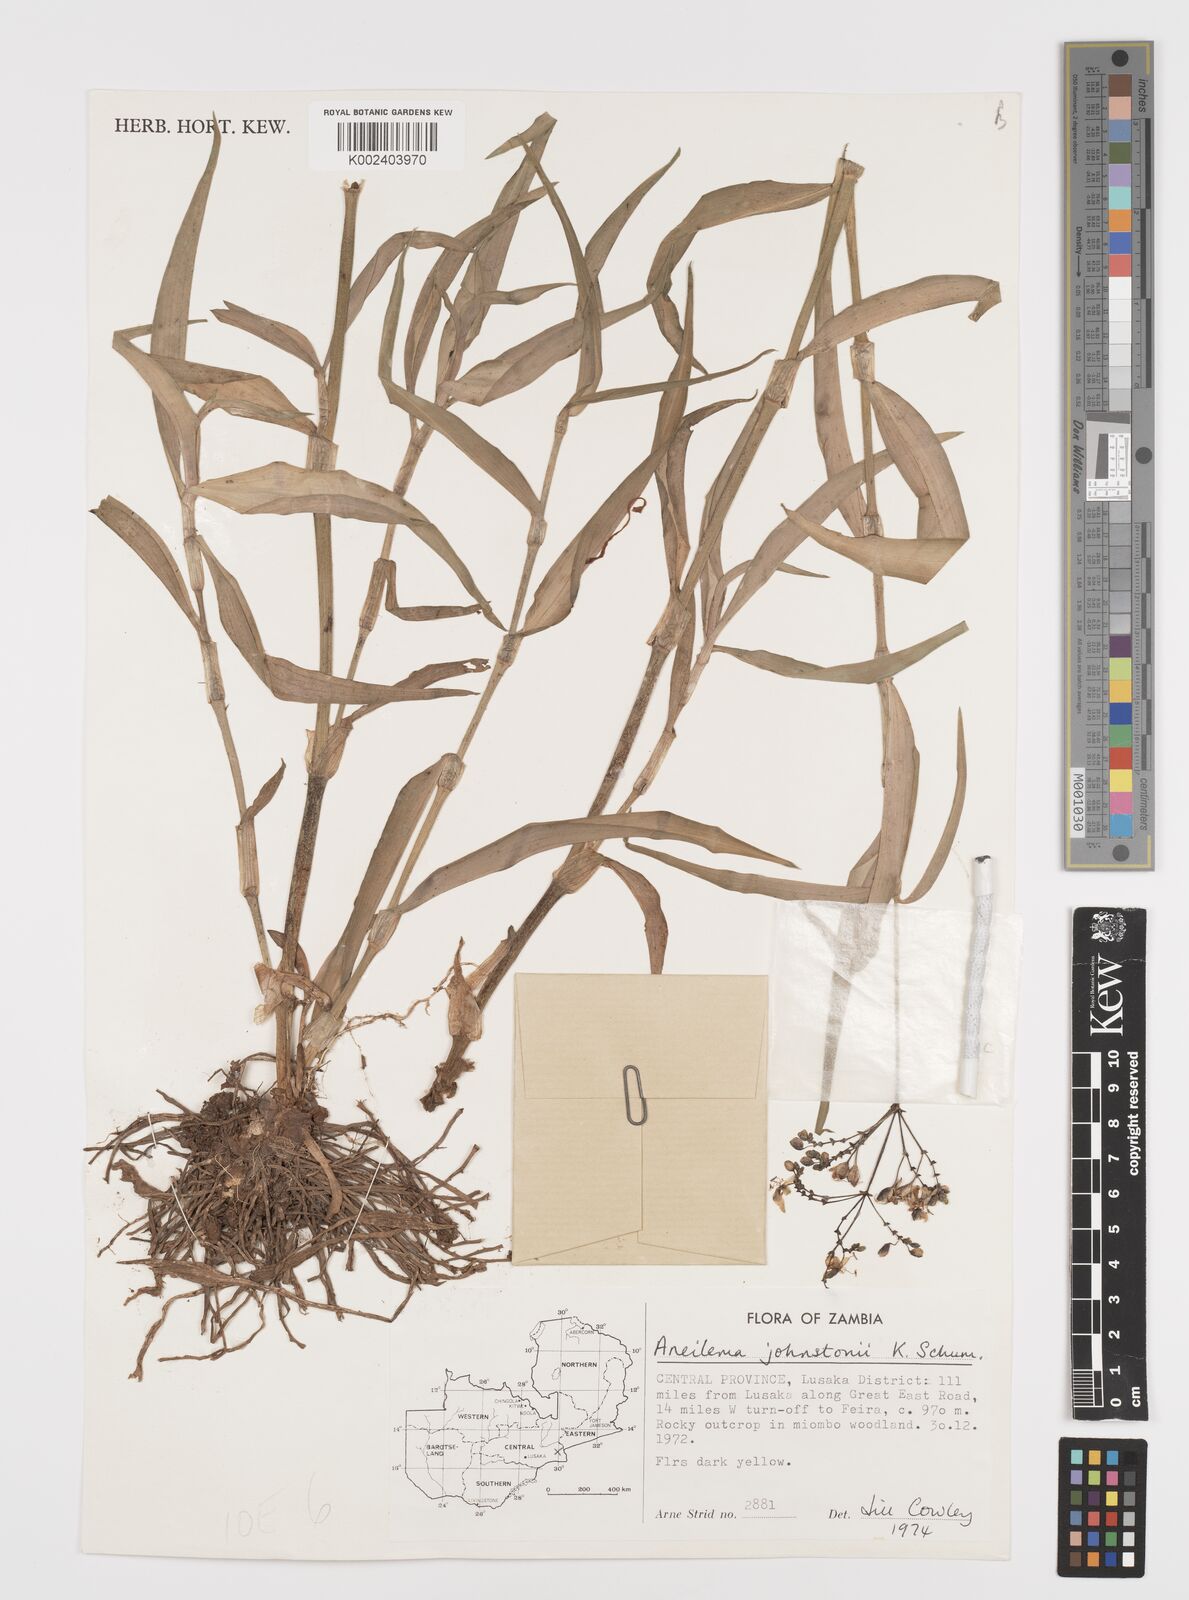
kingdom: Plantae
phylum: Tracheophyta
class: Liliopsida
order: Commelinales
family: Commelinaceae
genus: Aneilema
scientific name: Aneilema johnstonii
